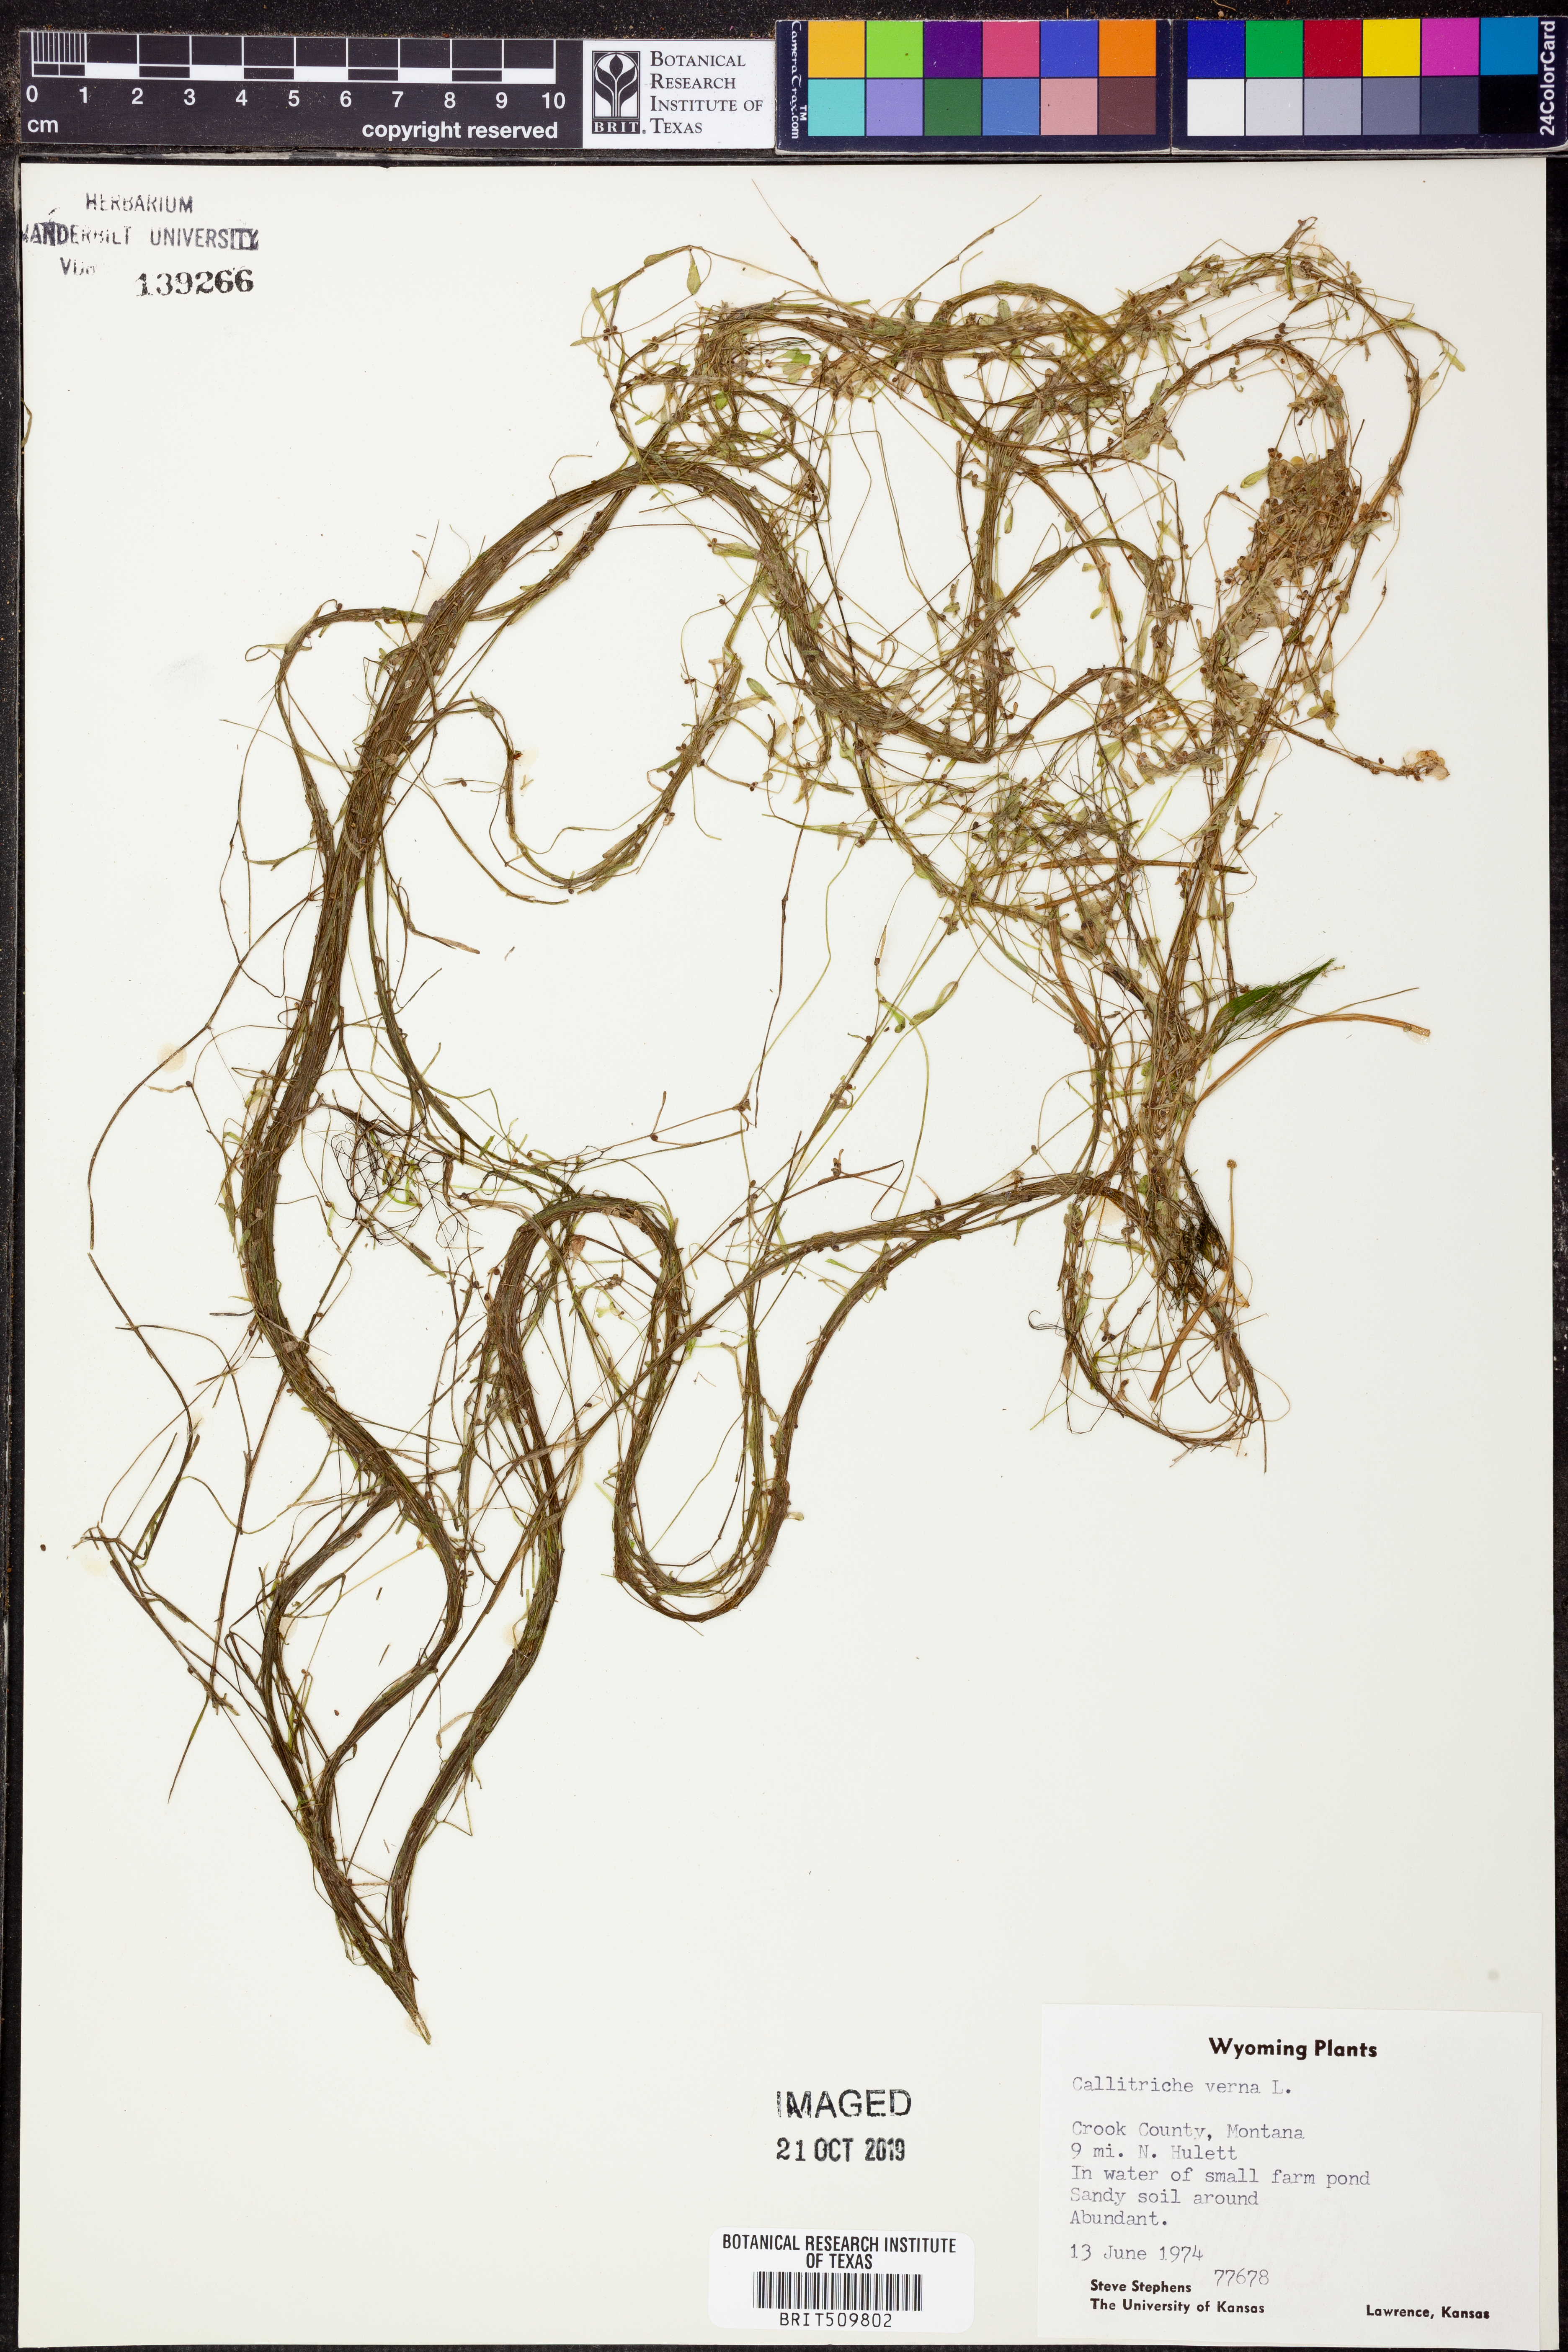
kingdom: Plantae
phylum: Tracheophyta
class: Magnoliopsida
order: Lamiales
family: Plantaginaceae
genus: Callitriche
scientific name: Callitriche palustris
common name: Spring water-starwort
